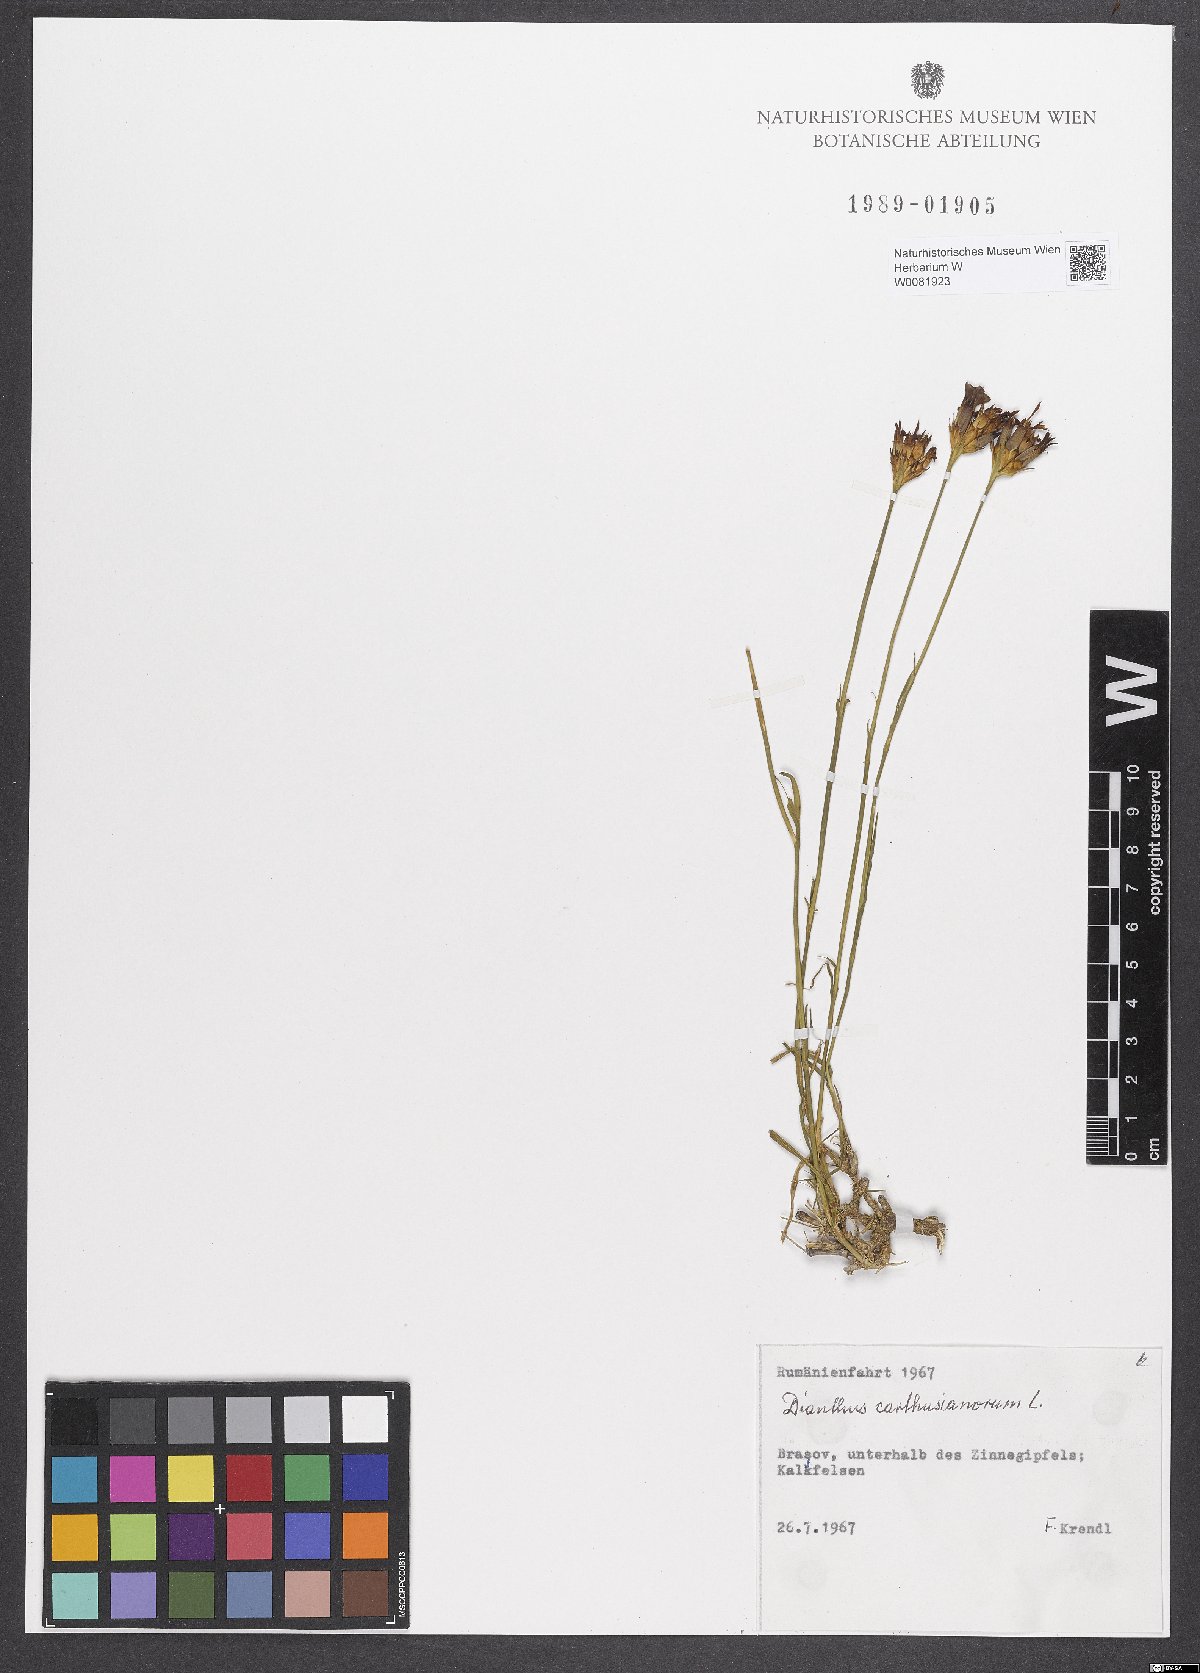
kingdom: Plantae
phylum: Tracheophyta
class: Magnoliopsida
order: Caryophyllales
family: Caryophyllaceae
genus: Dianthus
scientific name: Dianthus carthusianorum
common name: Carthusian pink
